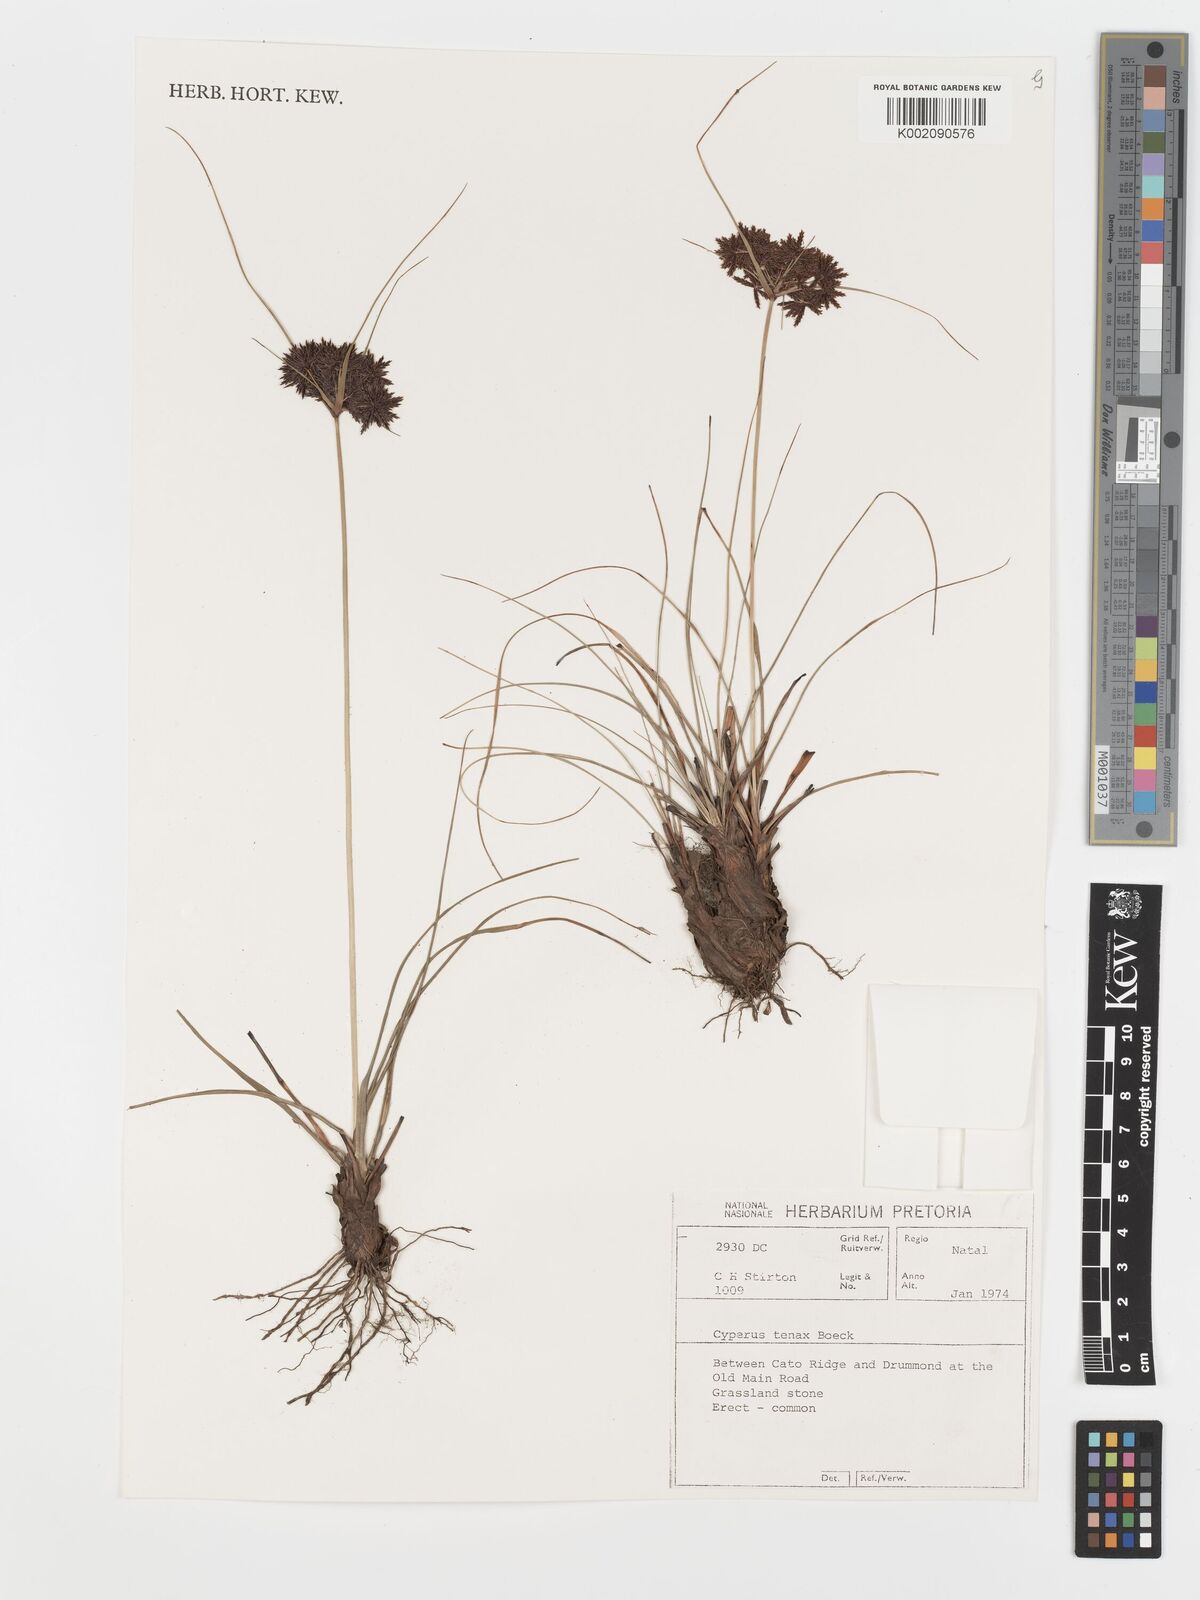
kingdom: Plantae
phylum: Tracheophyta
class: Liliopsida
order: Poales
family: Cyperaceae
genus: Cyperus
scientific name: Cyperus tenax
